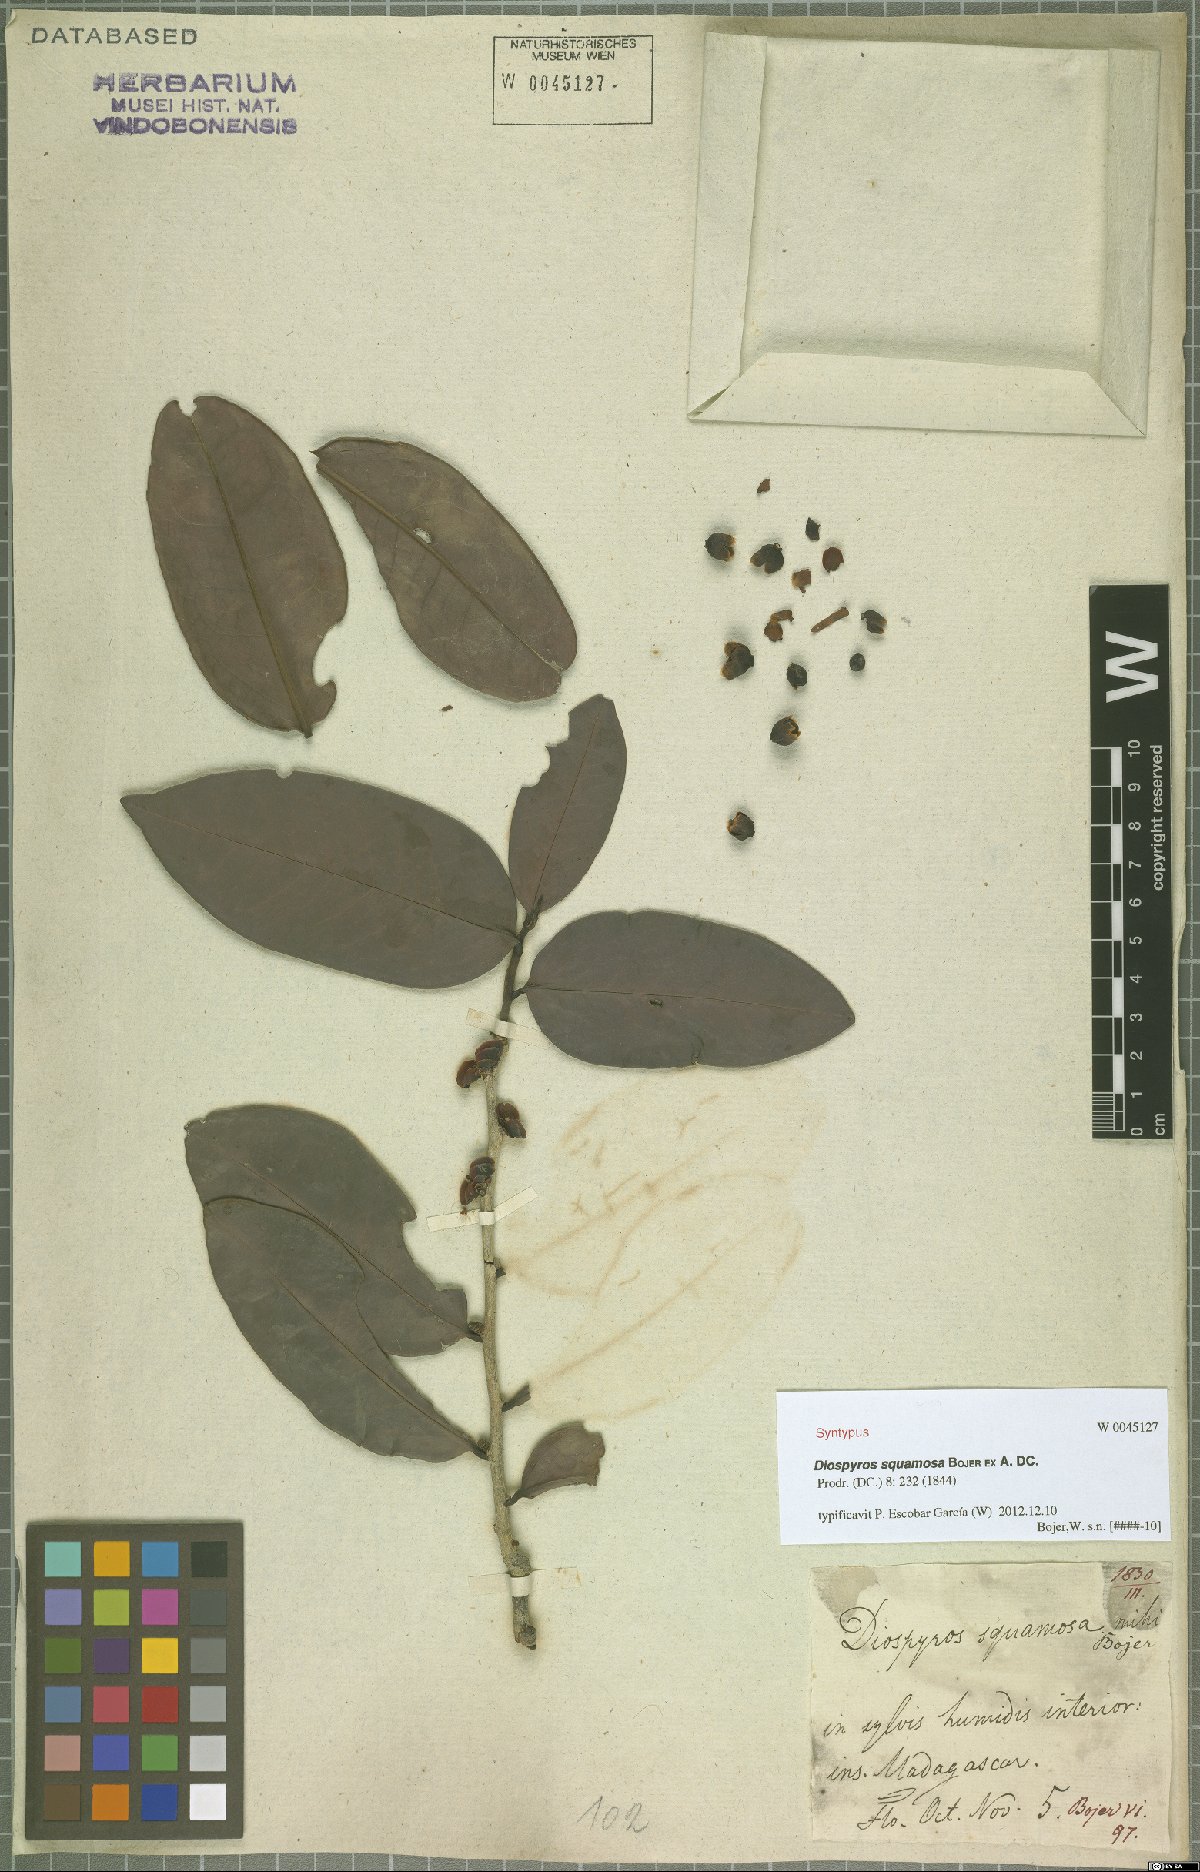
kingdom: Plantae
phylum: Tracheophyta
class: Magnoliopsida
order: Ericales
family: Ebenaceae
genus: Diospyros
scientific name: Diospyros squamosa
